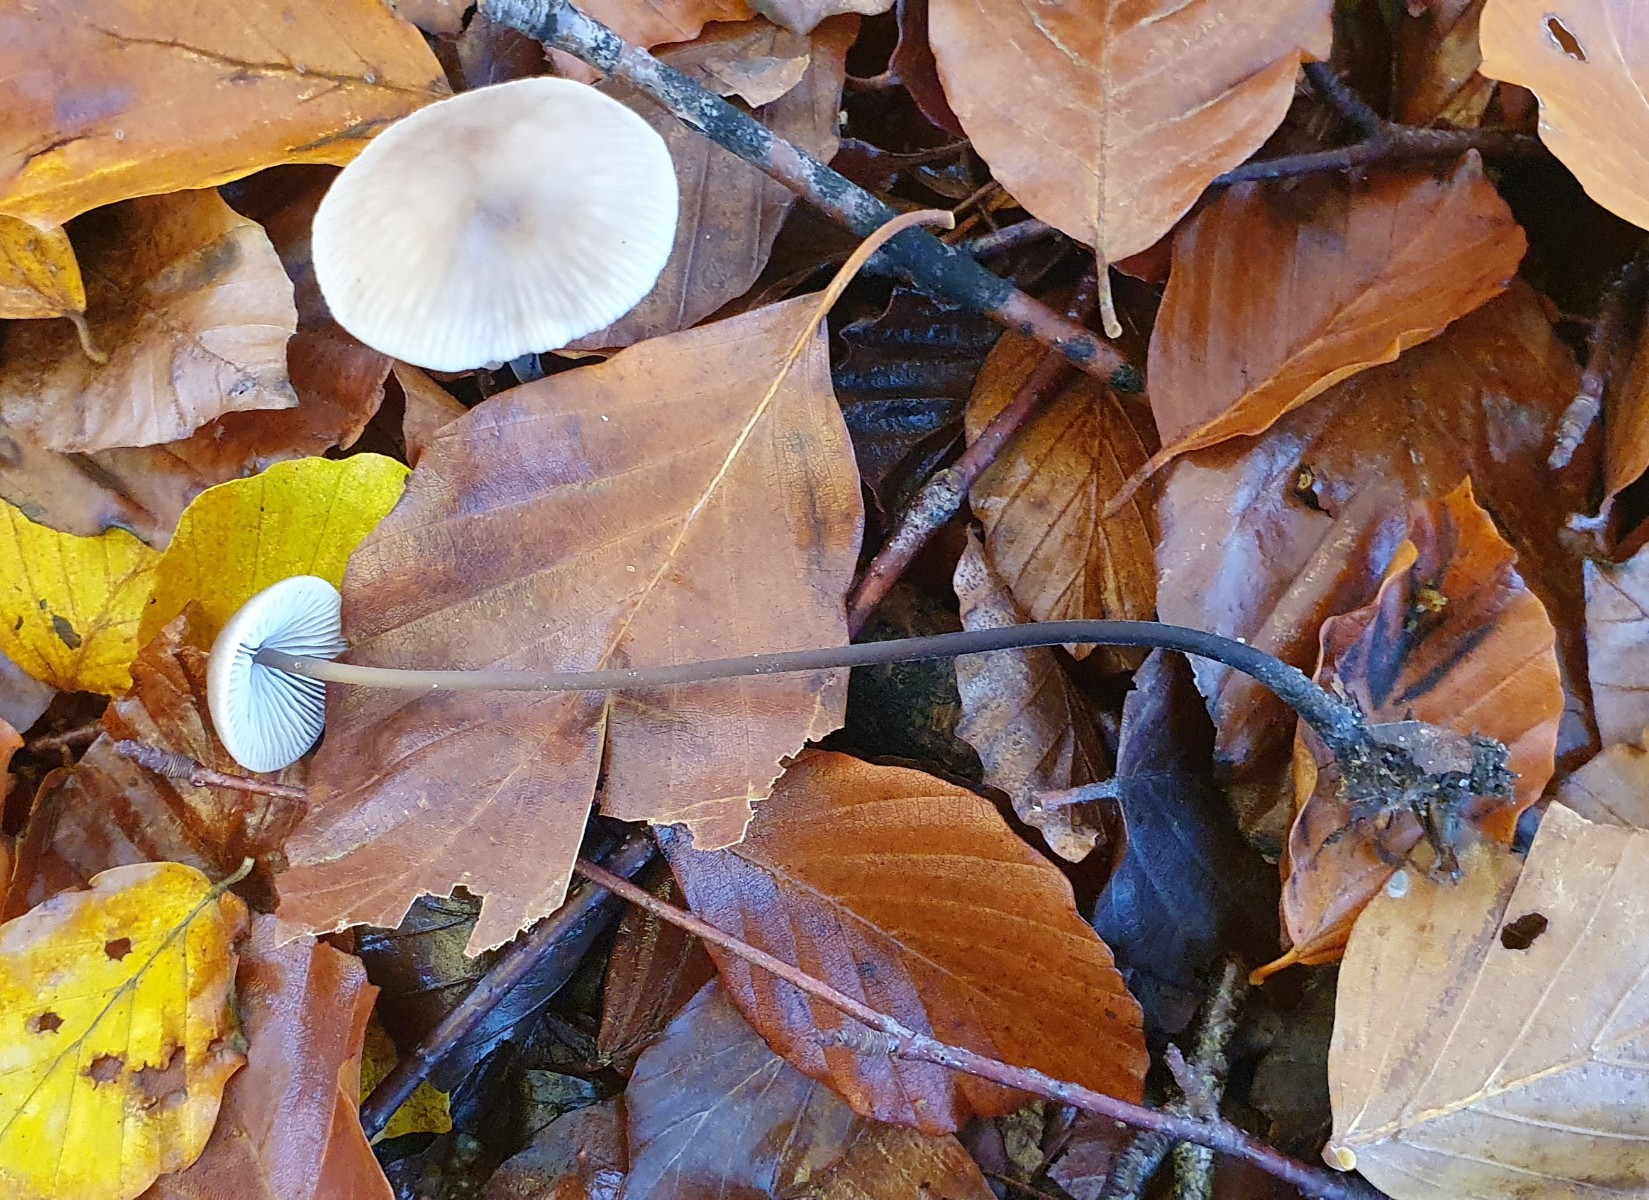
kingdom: Fungi
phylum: Basidiomycota
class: Agaricomycetes
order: Agaricales
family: Omphalotaceae
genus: Mycetinis
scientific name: Mycetinis alliaceus
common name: stor løghat
